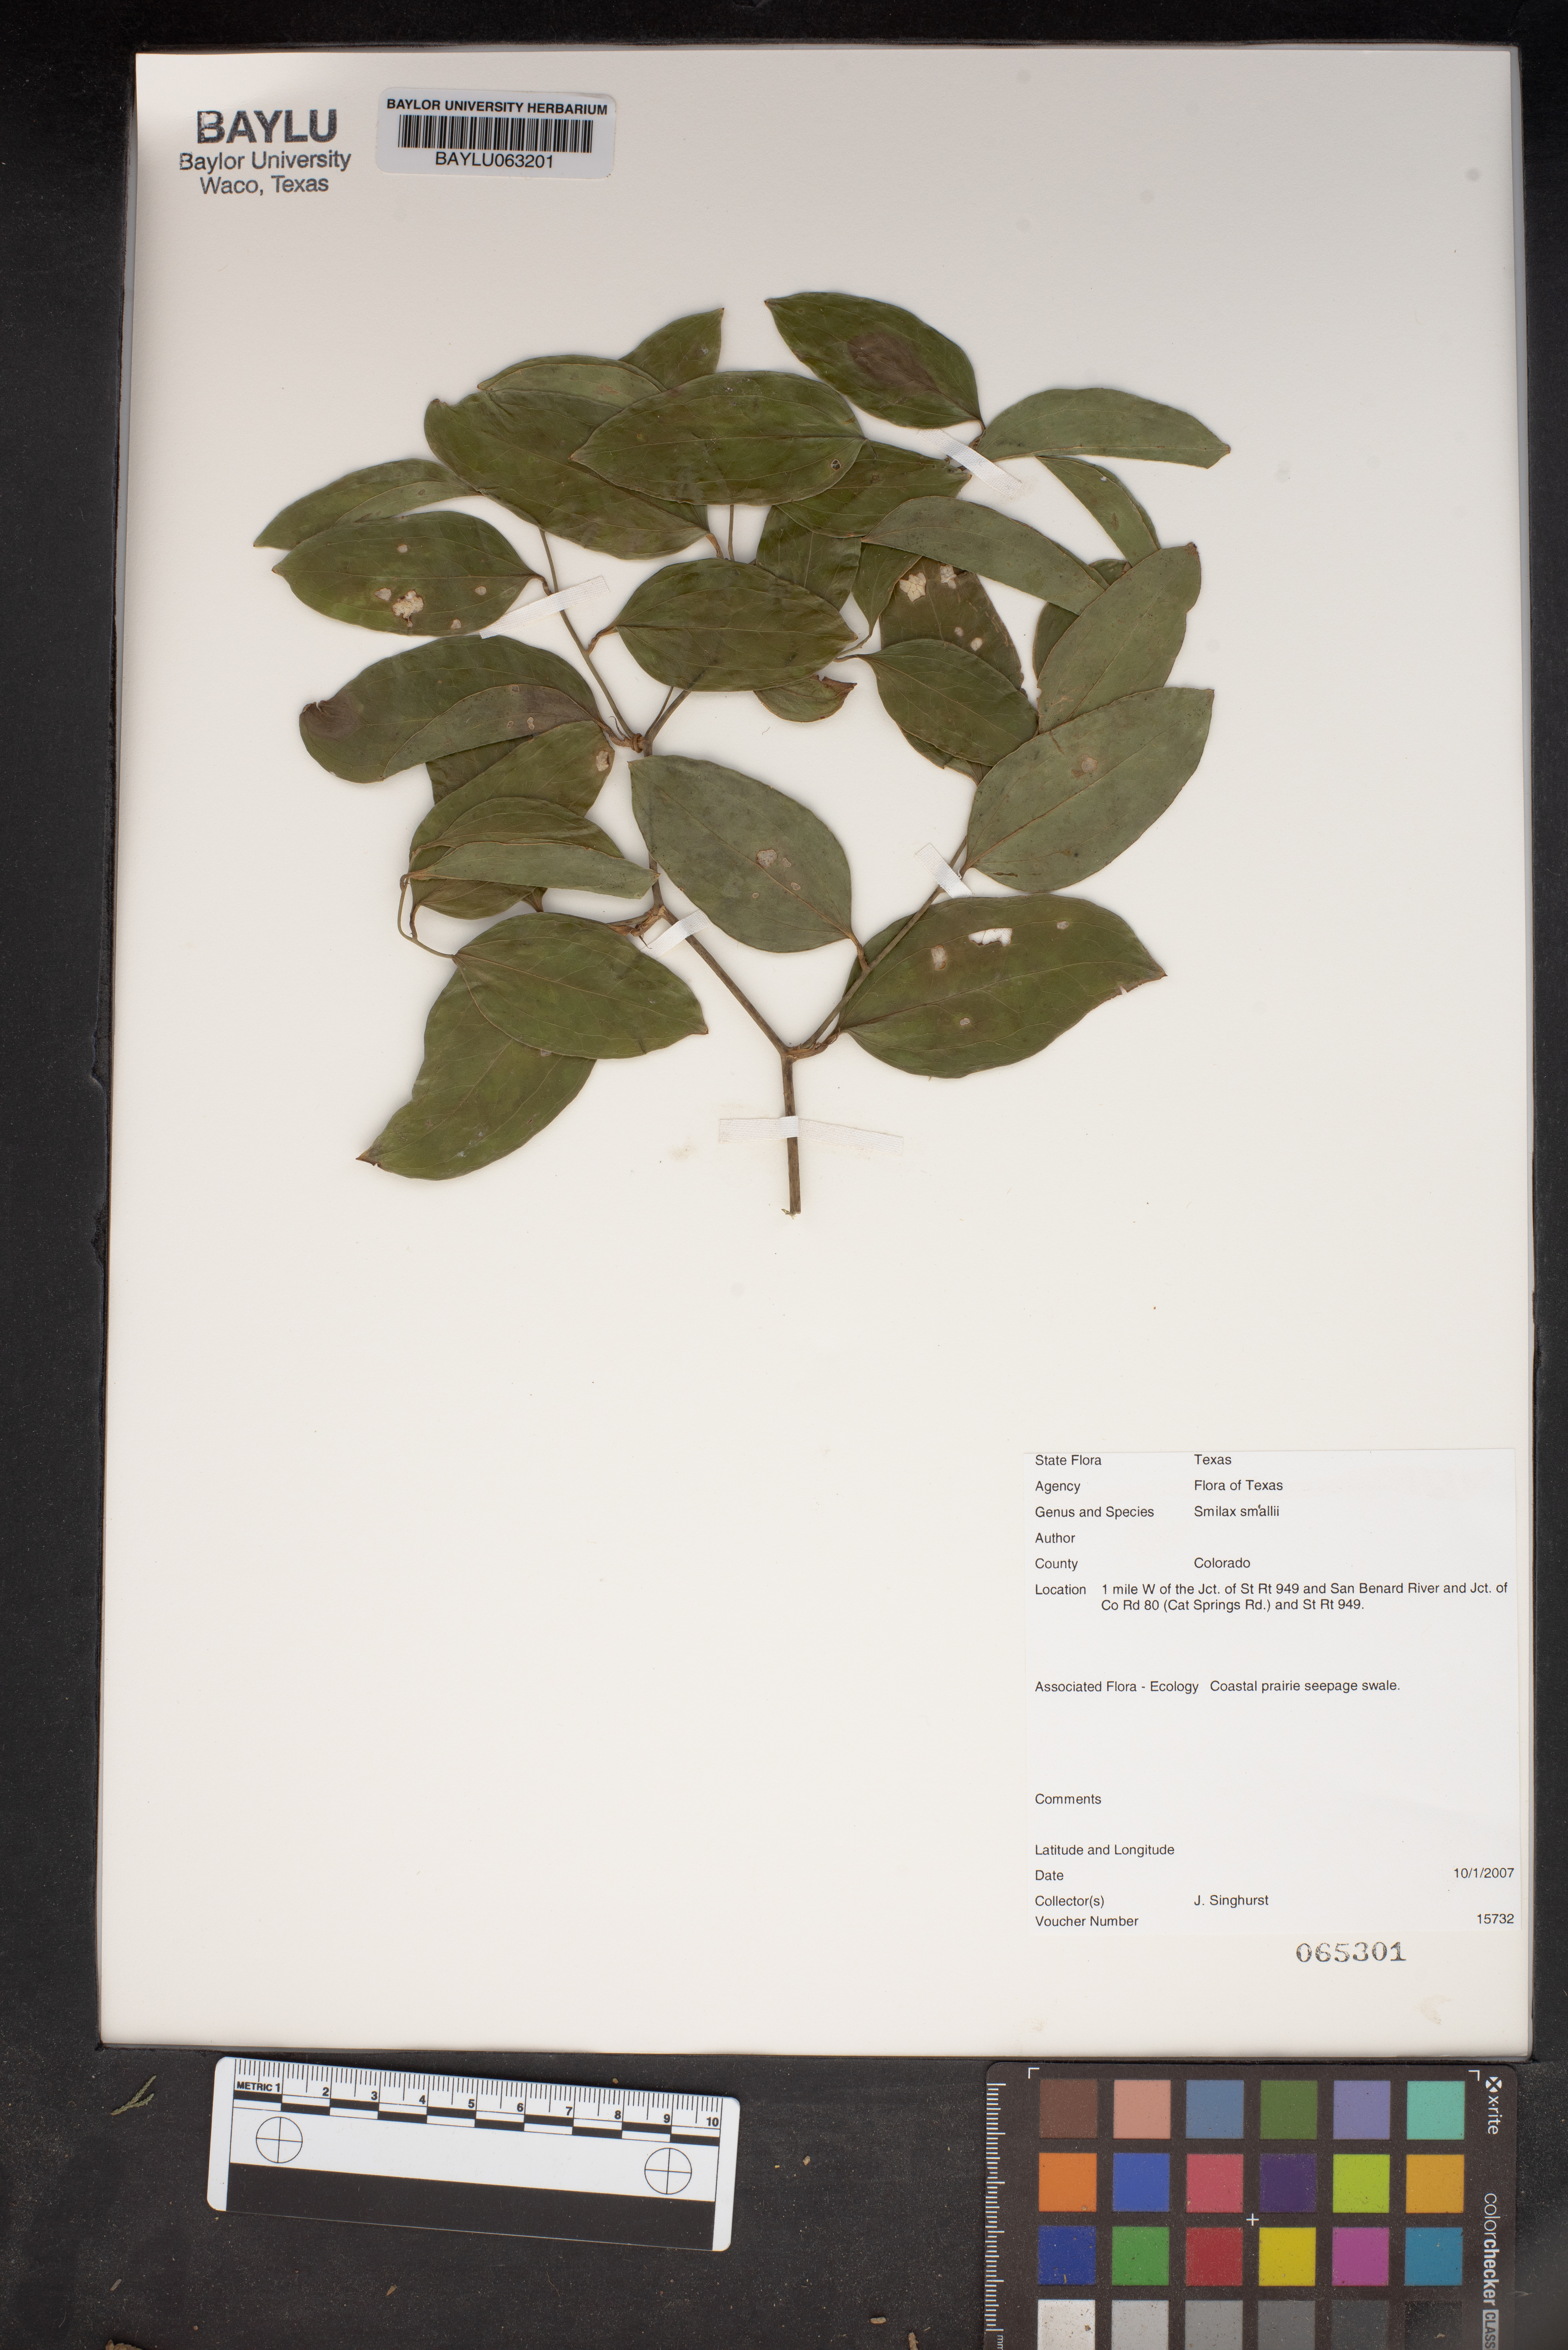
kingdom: Plantae
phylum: Tracheophyta
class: Liliopsida
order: Liliales
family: Smilacaceae
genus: Smilax
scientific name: Smilax maritima
